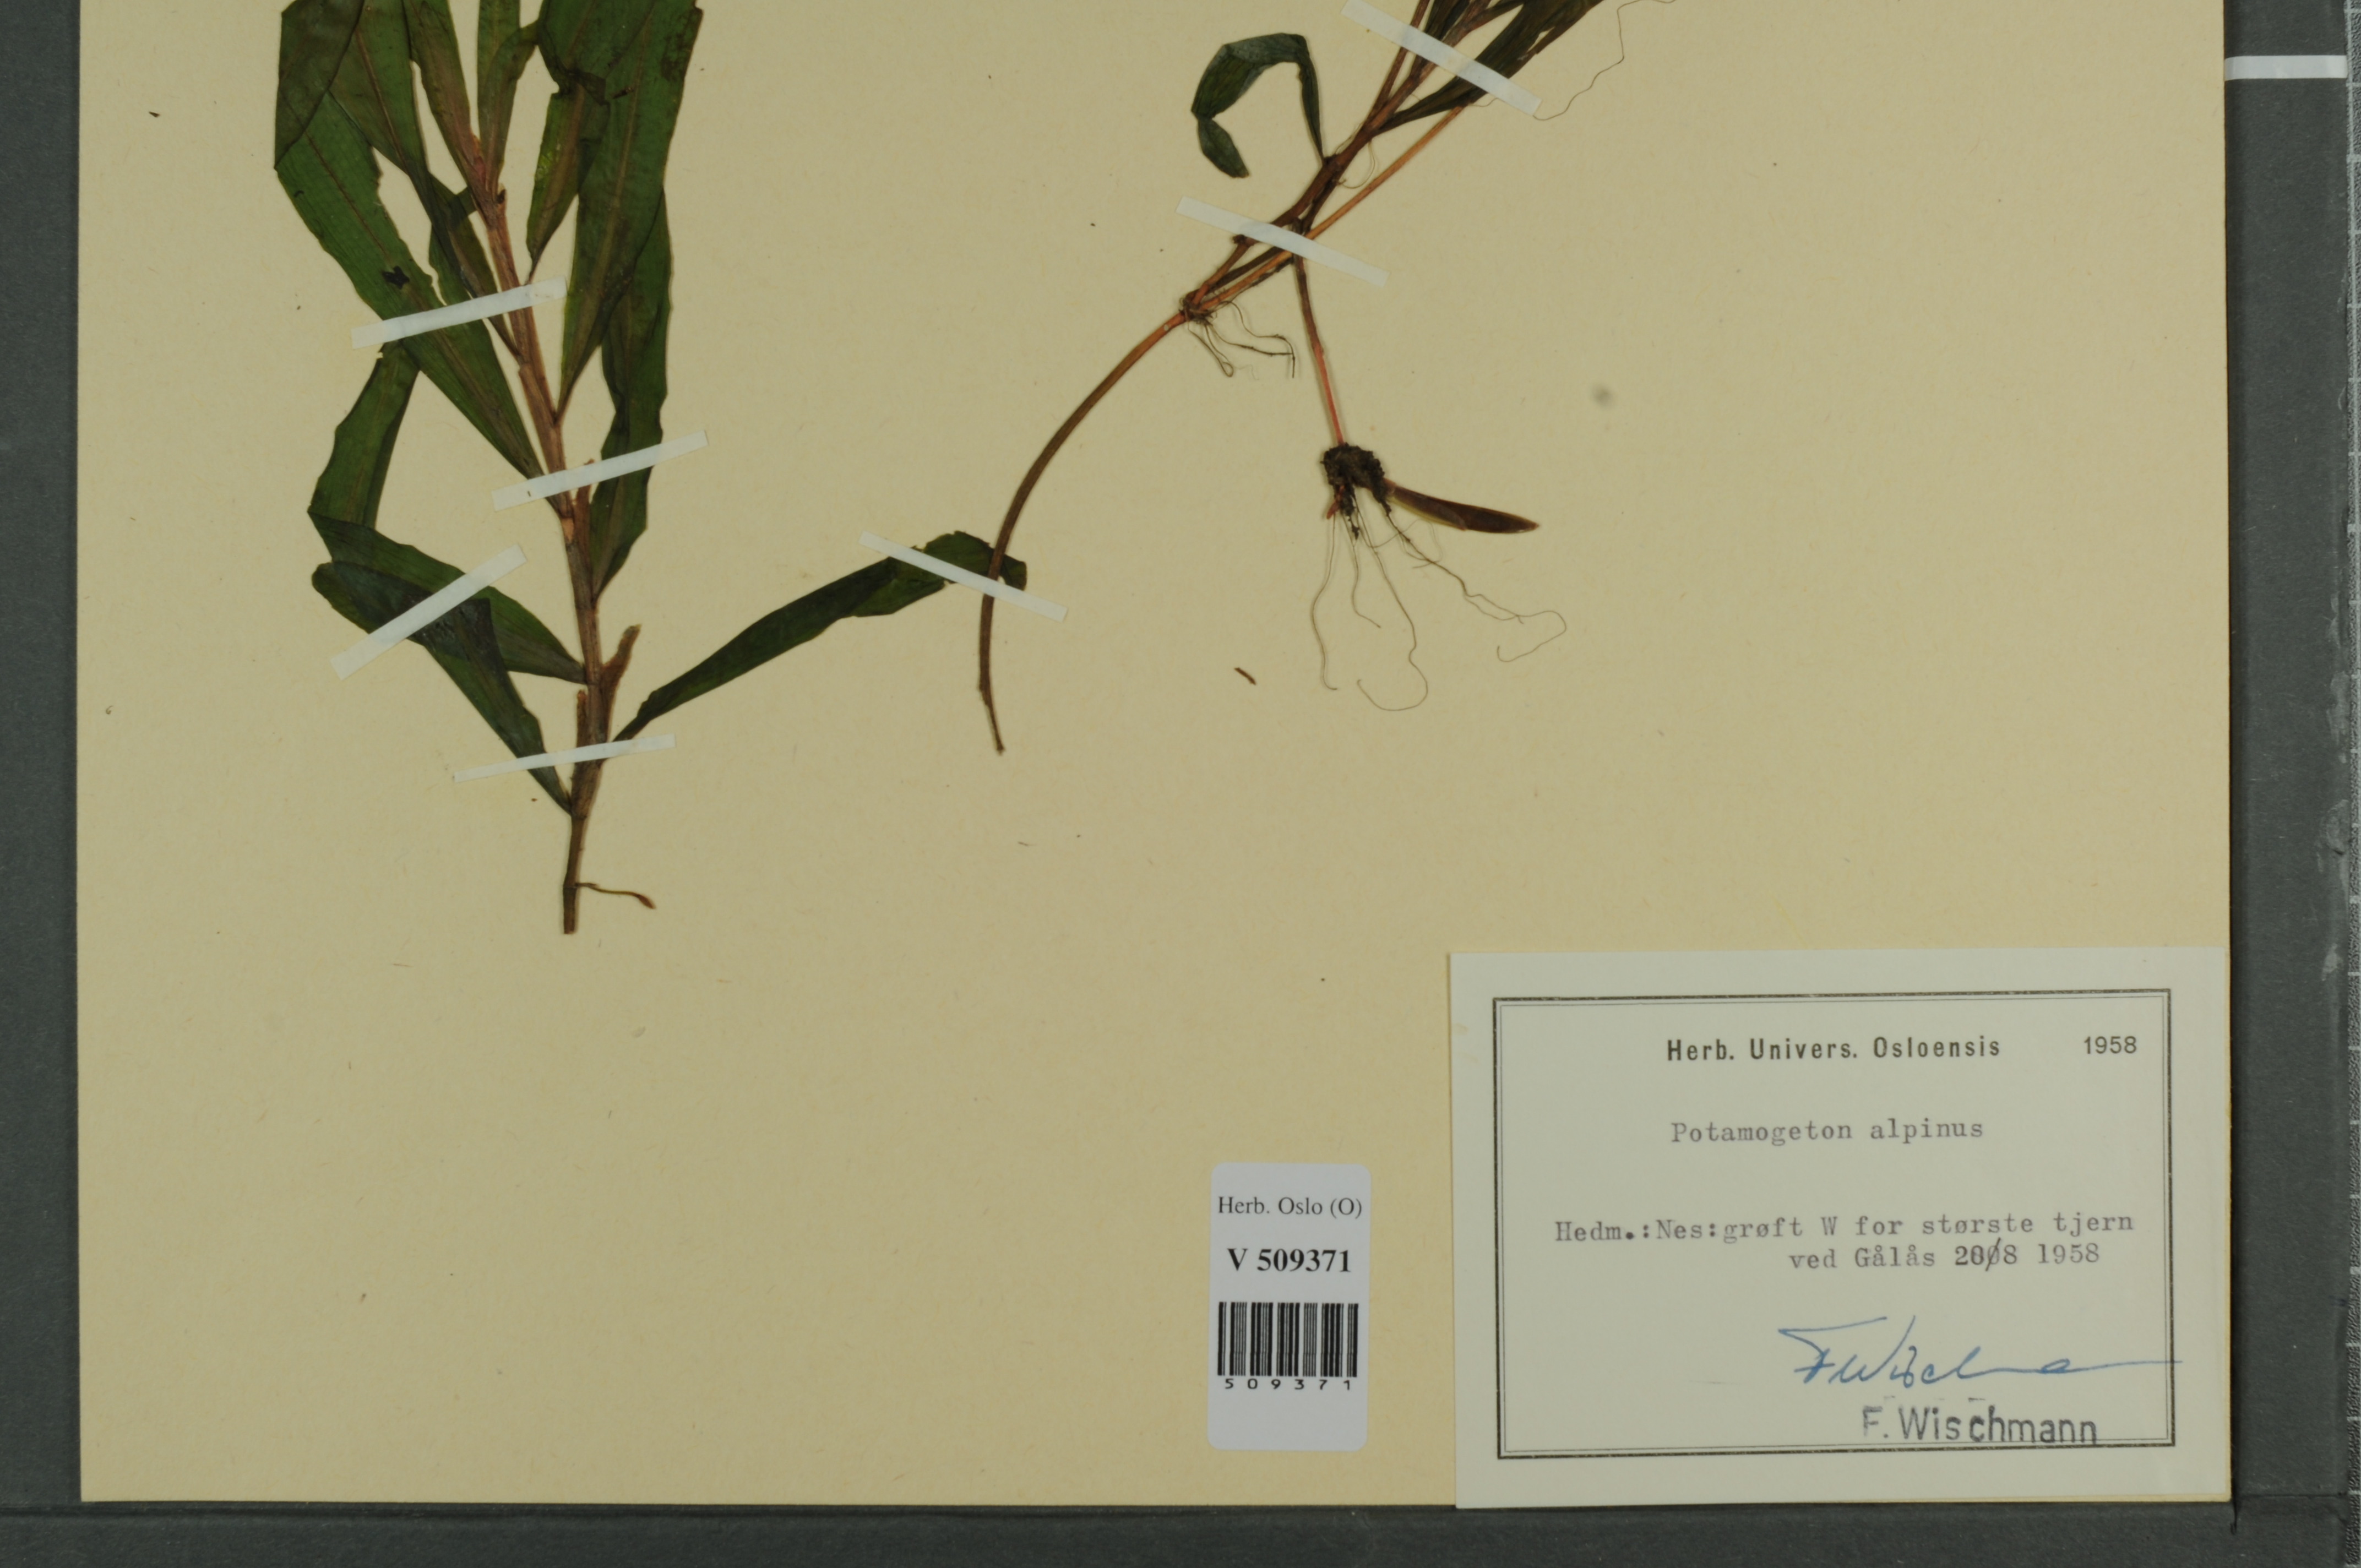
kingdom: Plantae
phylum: Tracheophyta
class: Liliopsida
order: Alismatales
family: Potamogetonaceae
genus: Potamogeton
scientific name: Potamogeton alpinus
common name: Red pondweed
